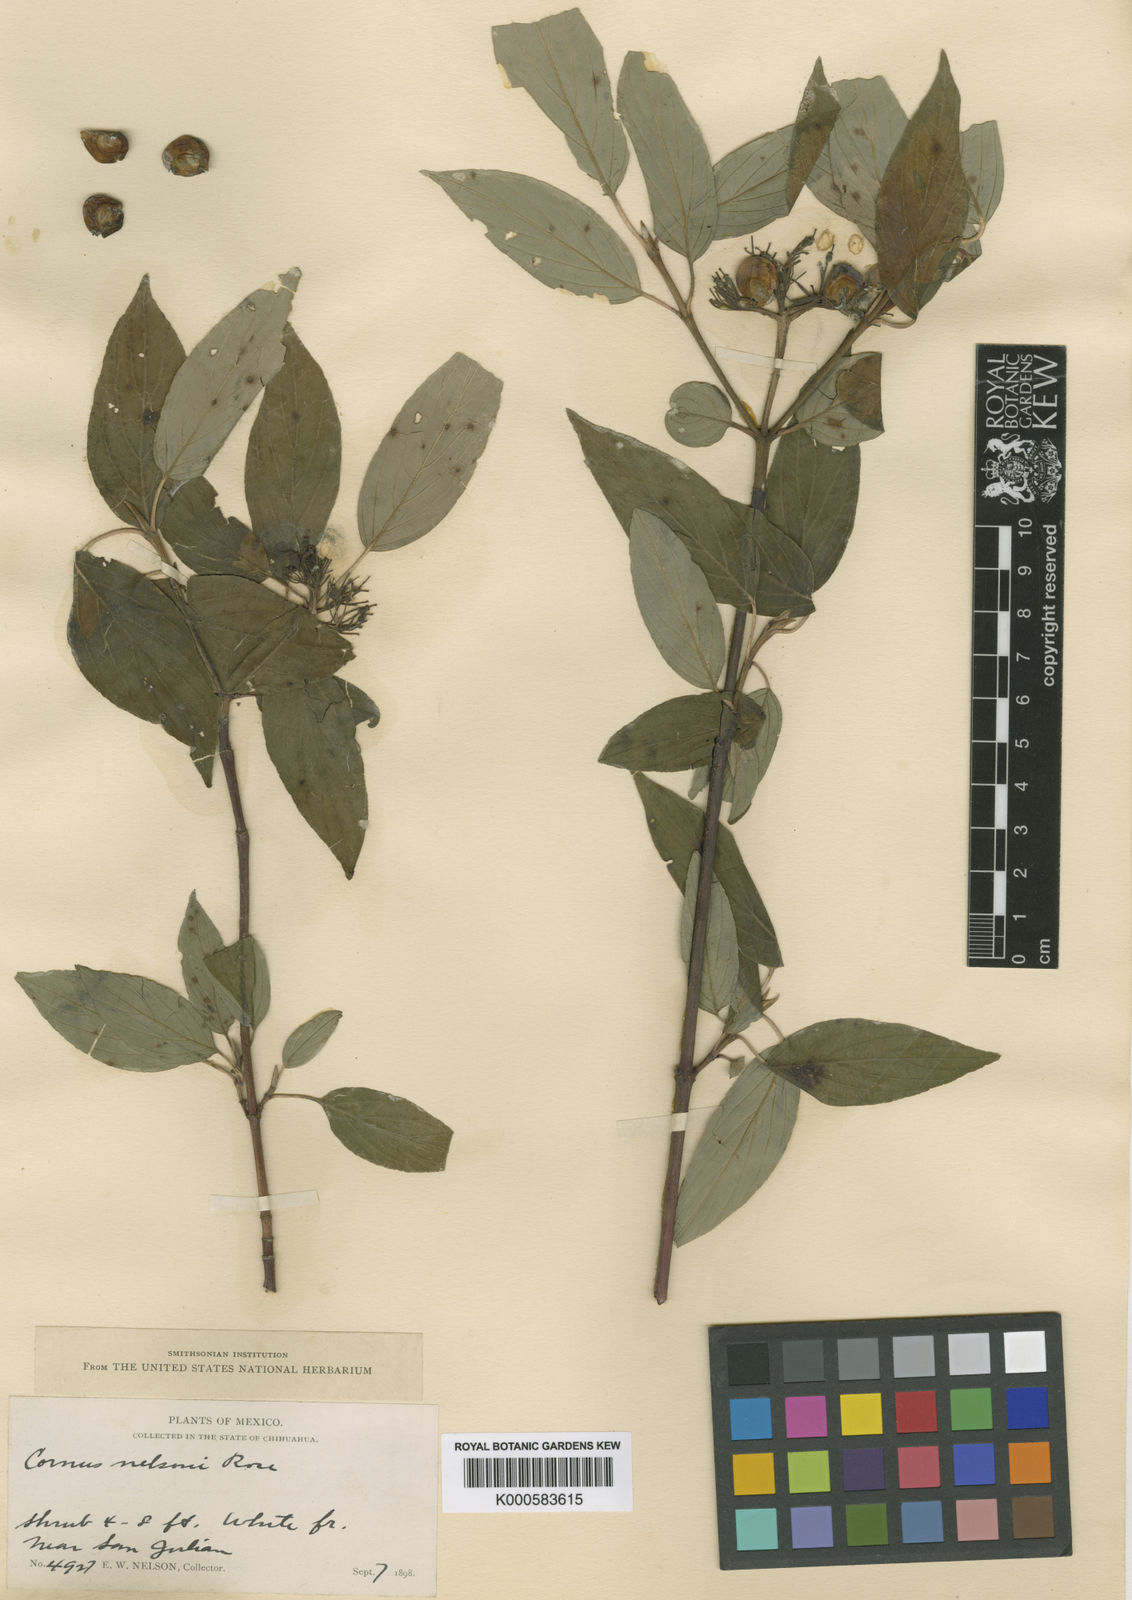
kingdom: Plantae
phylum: Tracheophyta
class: Magnoliopsida
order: Cornales
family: Cornaceae
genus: Cornus
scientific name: Cornus alba
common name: White dogwood
